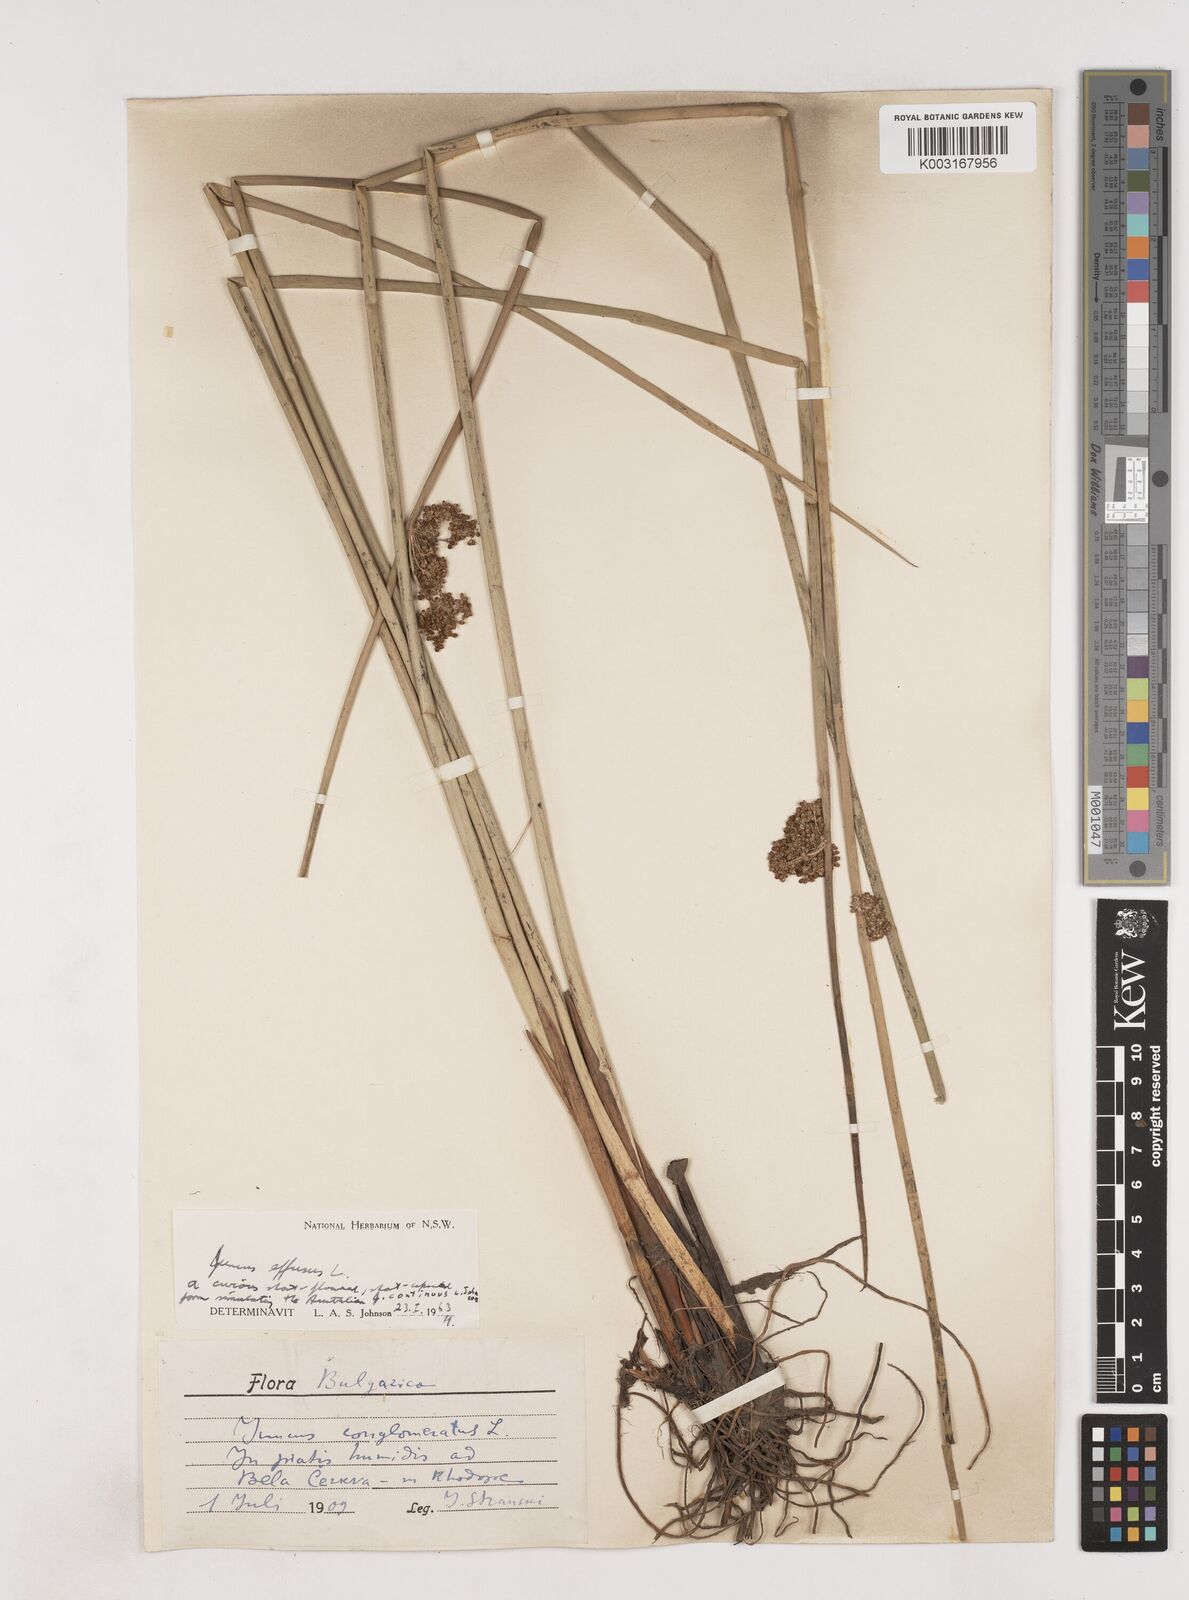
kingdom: Plantae
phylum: Tracheophyta
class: Liliopsida
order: Poales
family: Juncaceae
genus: Juncus
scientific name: Juncus effusus
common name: Soft rush
